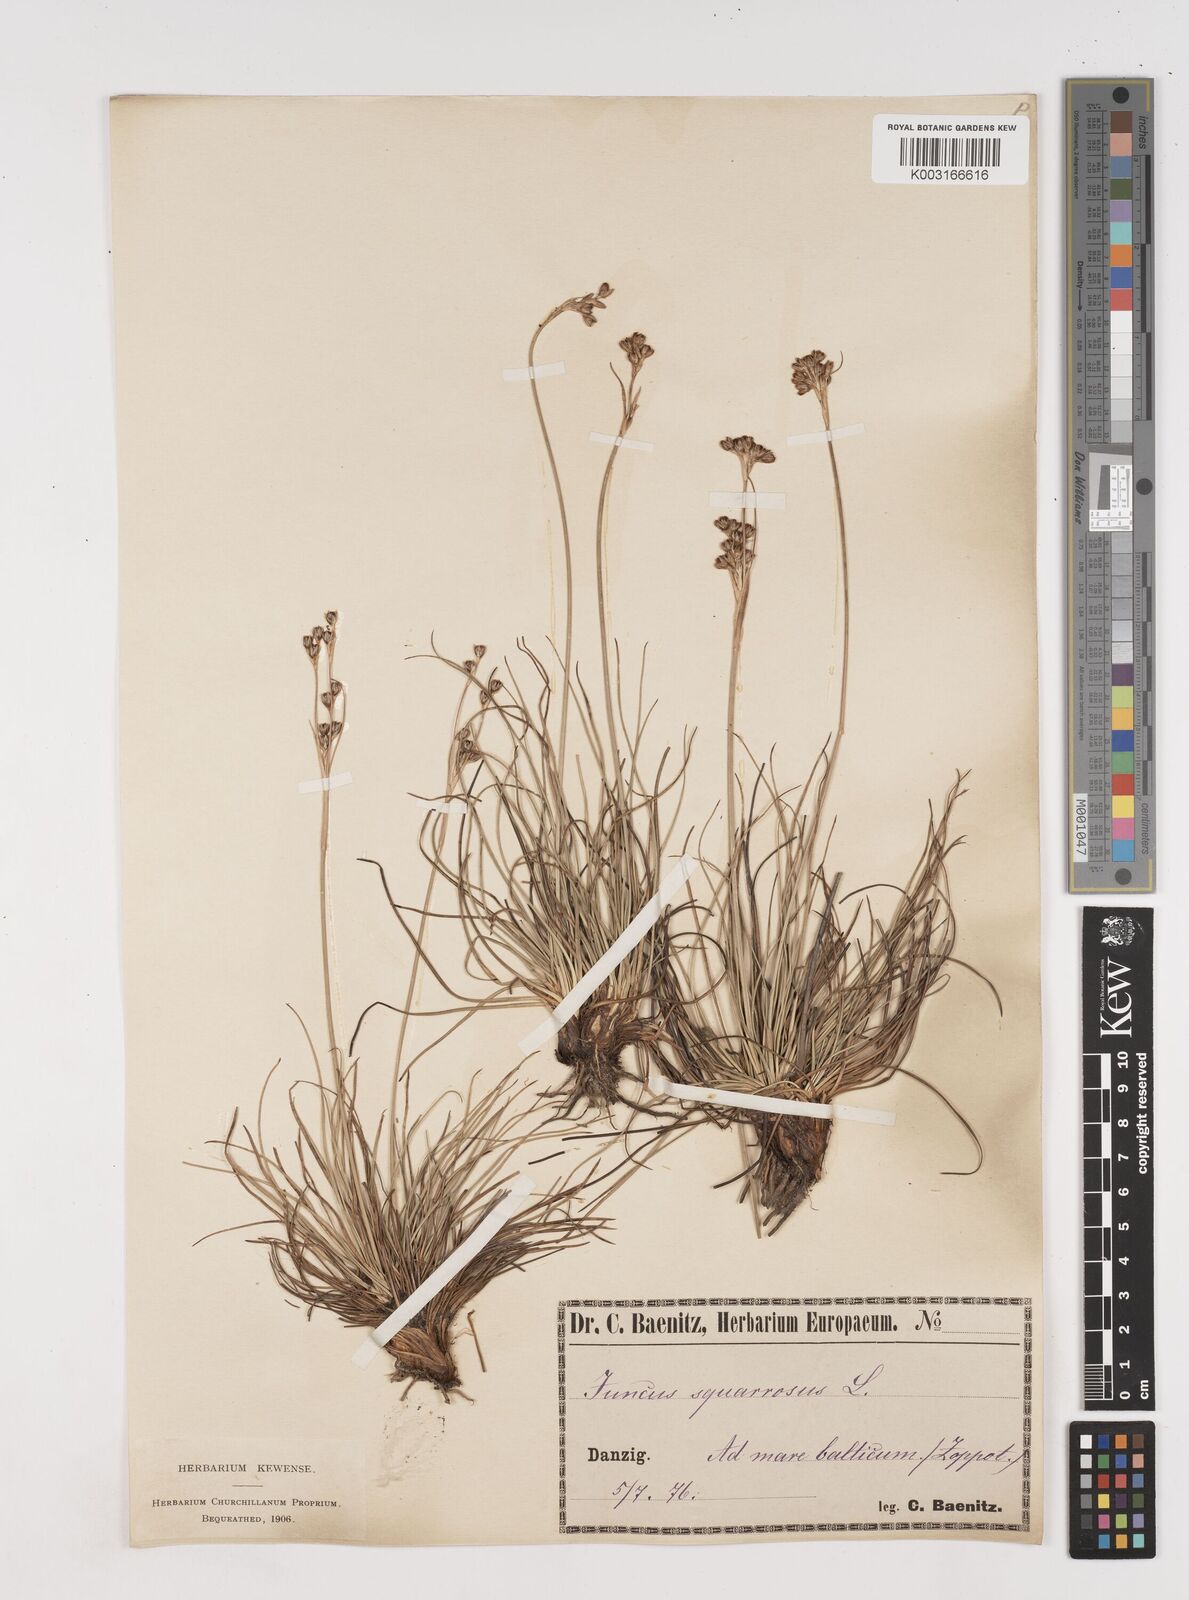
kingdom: Plantae
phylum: Tracheophyta
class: Liliopsida
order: Poales
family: Juncaceae
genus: Juncus
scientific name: Juncus squarrosus
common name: Heath rush
